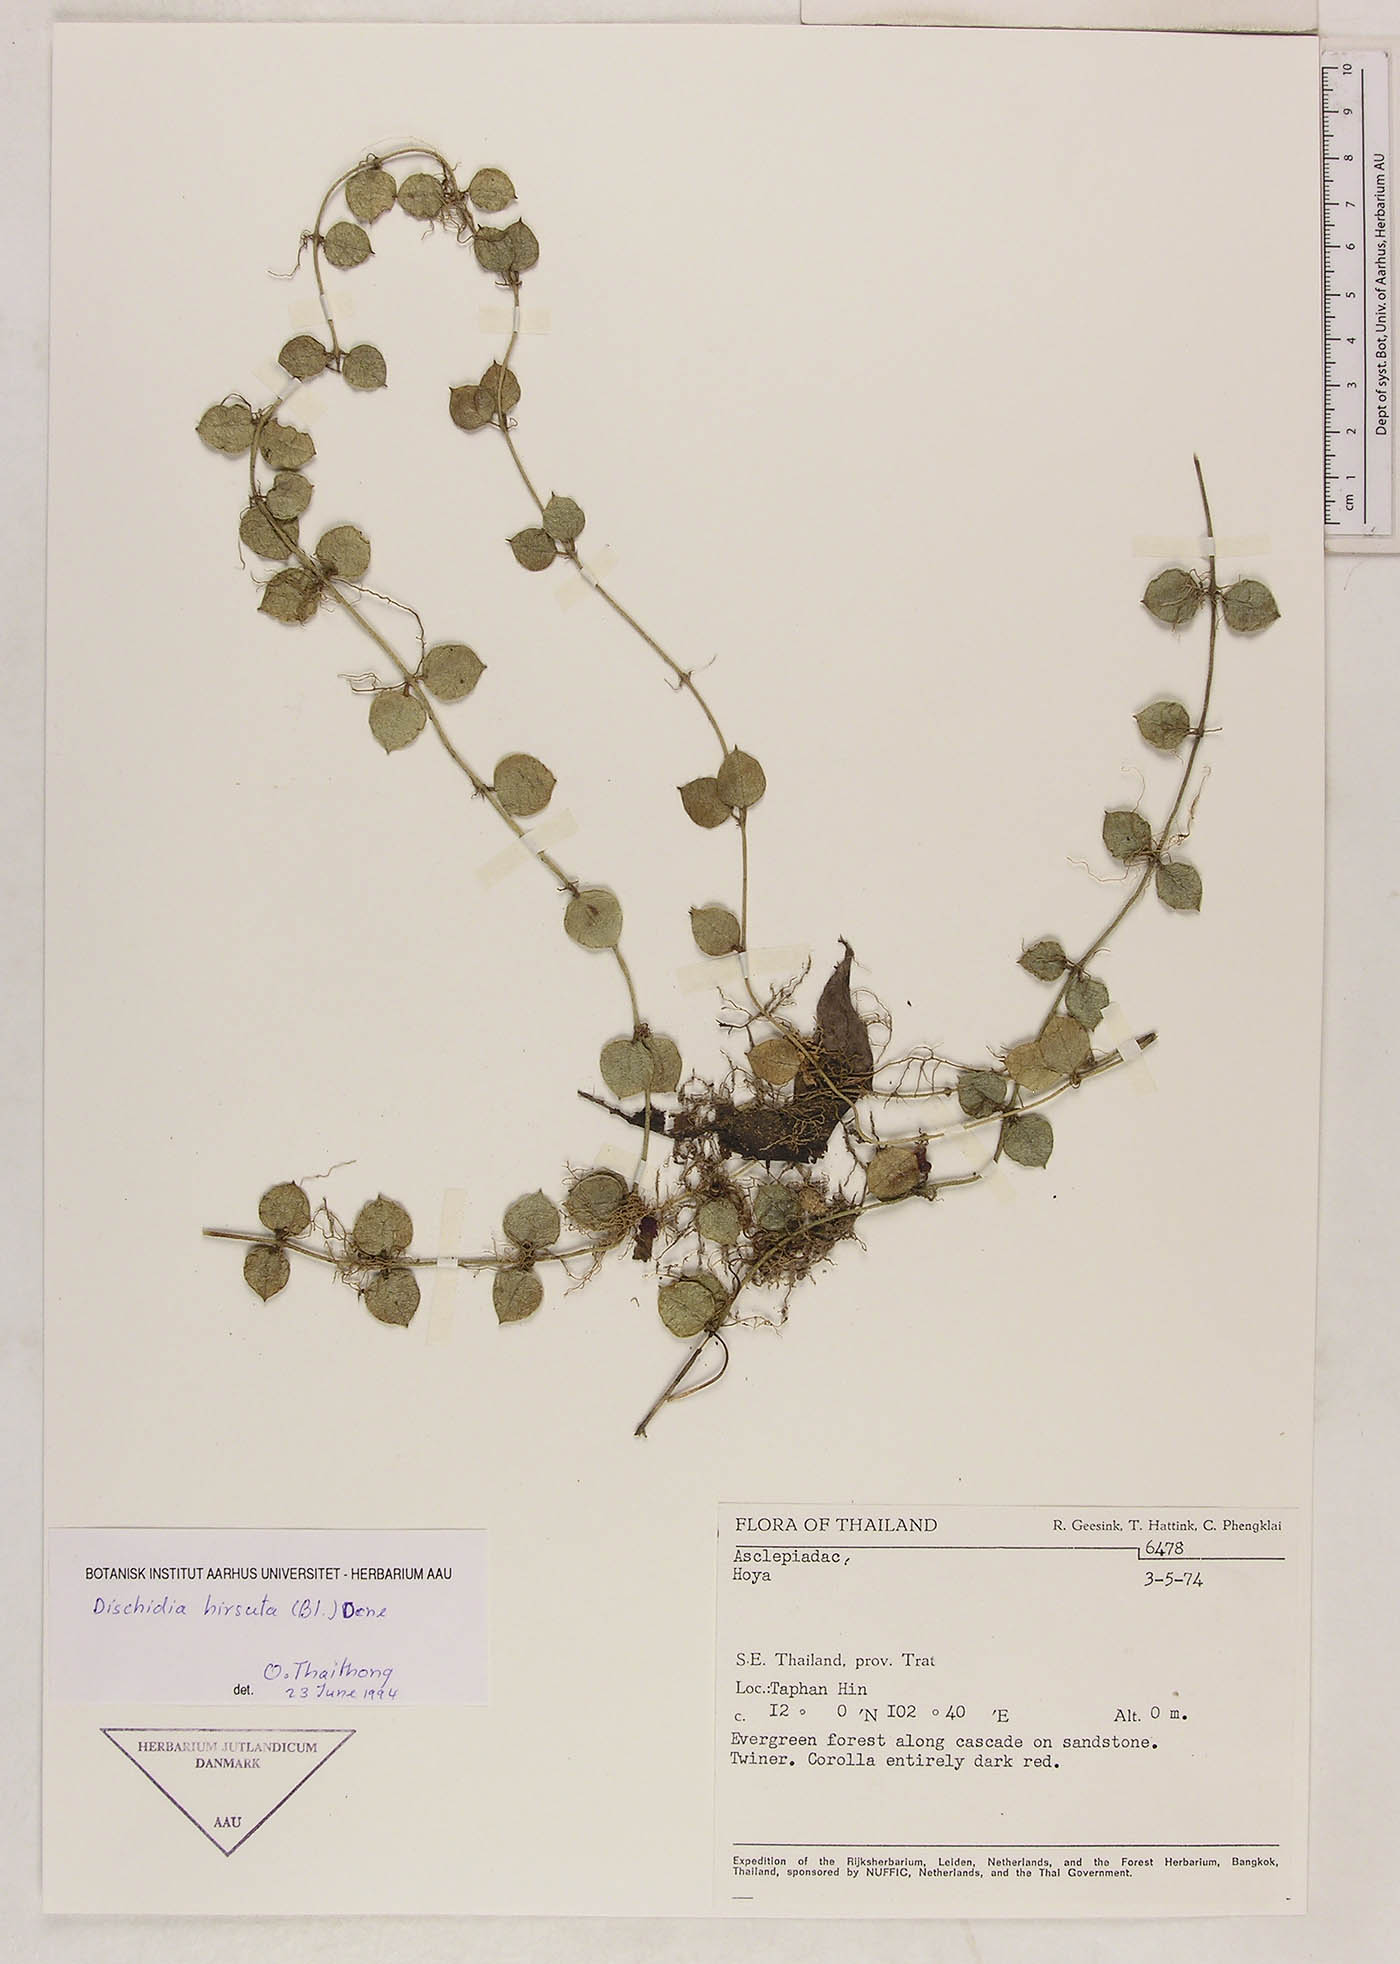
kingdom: Plantae
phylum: Tracheophyta
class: Magnoliopsida
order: Gentianales
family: Apocynaceae
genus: Dischidia
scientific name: Dischidia hirsuta
